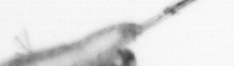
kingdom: Animalia
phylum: Arthropoda
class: Copepoda
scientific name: Copepoda
